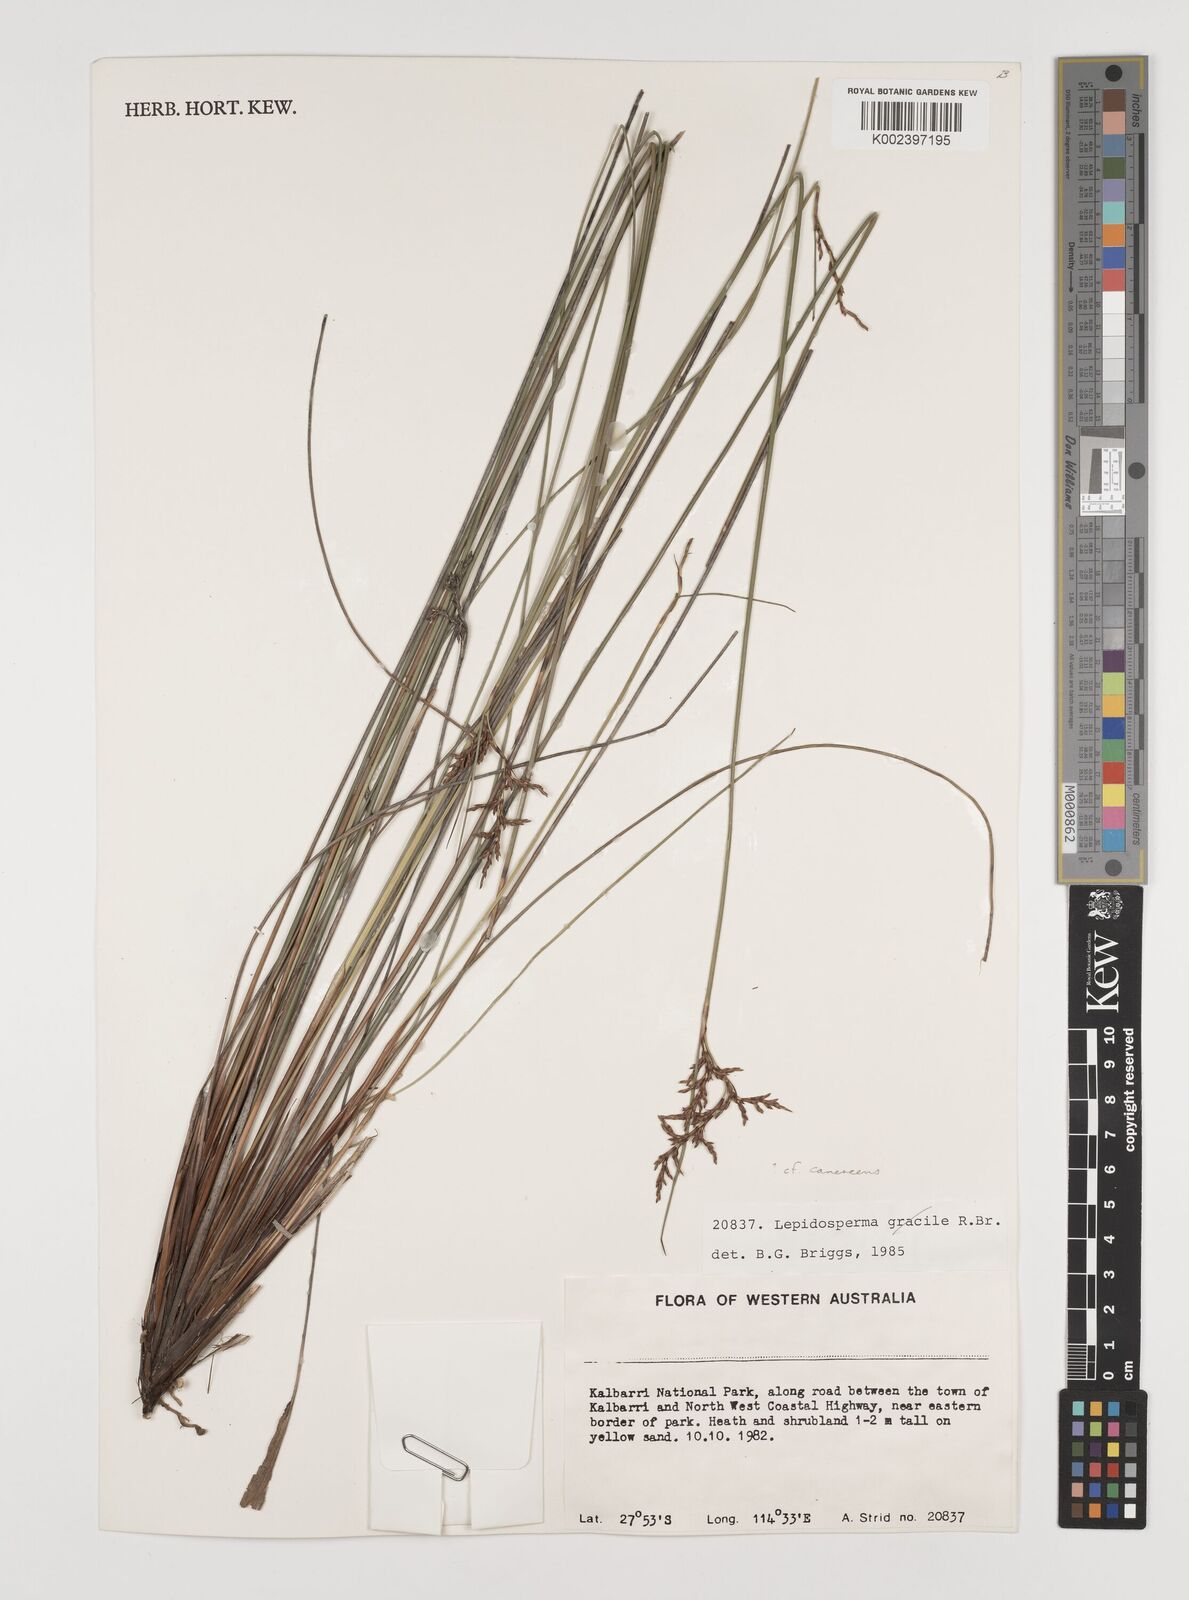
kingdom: Plantae
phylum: Tracheophyta
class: Liliopsida
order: Poales
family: Cyperaceae
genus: Lepidosperma
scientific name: Lepidosperma canescens
